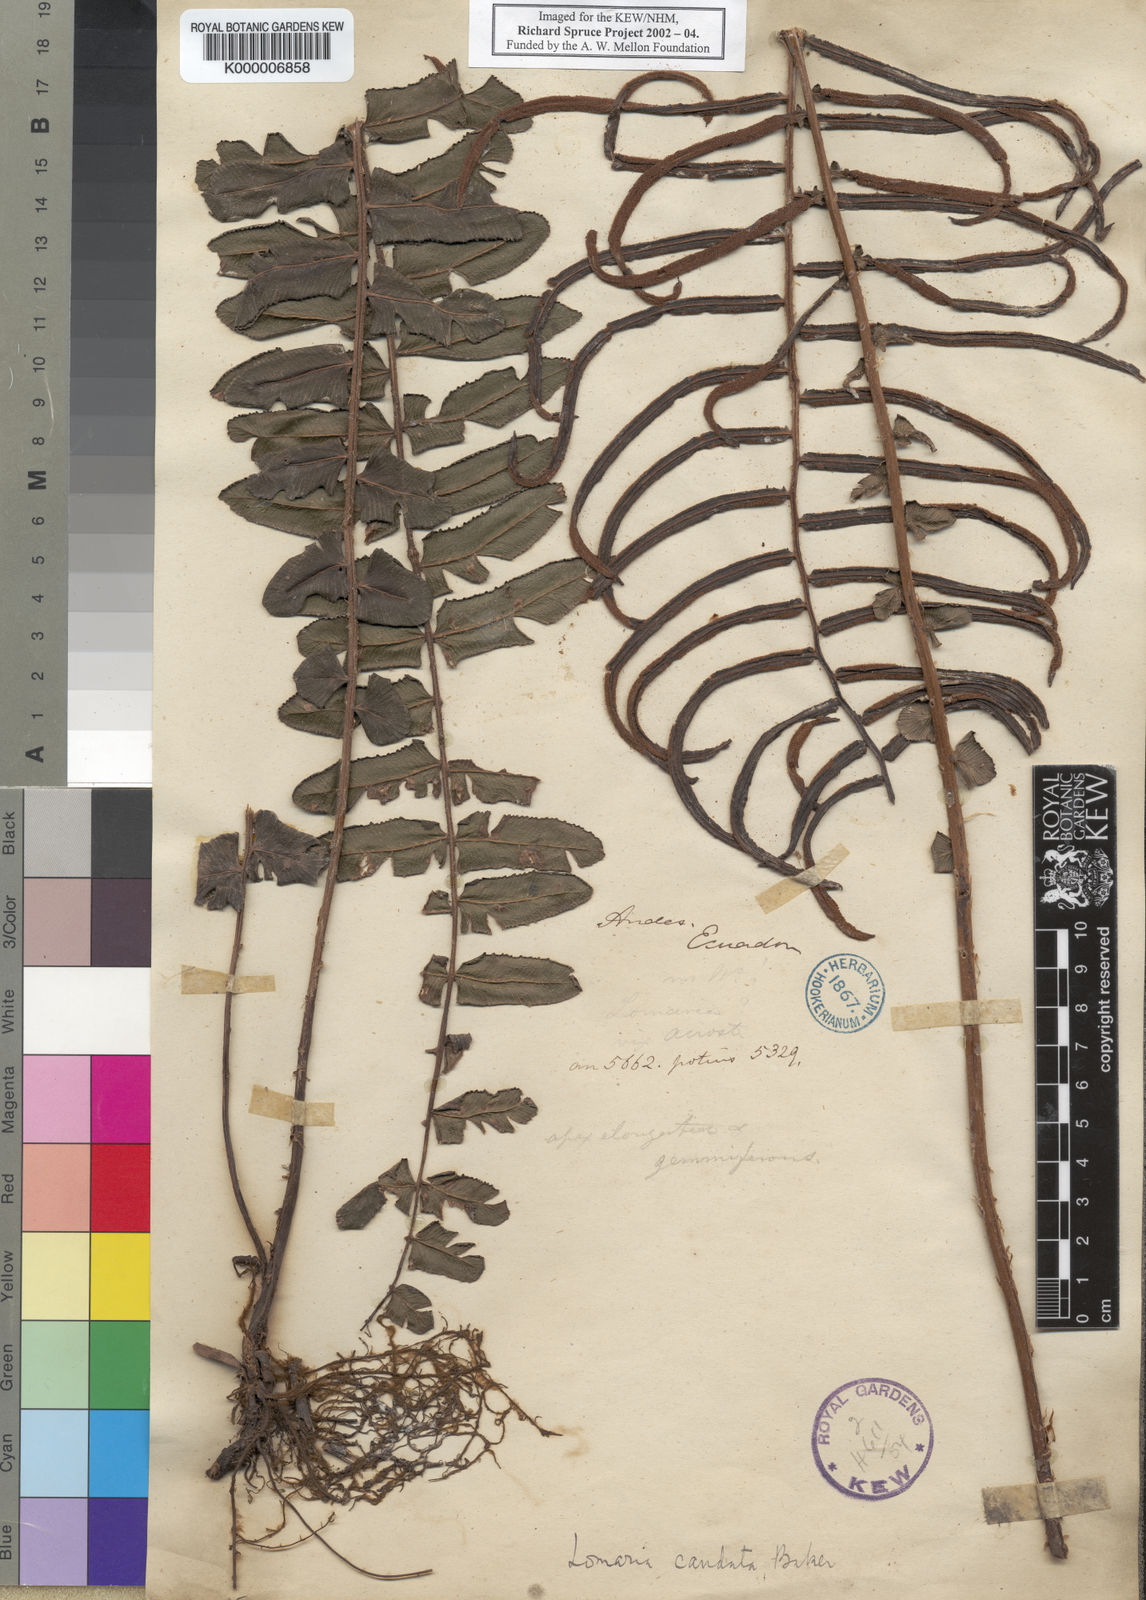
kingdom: Plantae
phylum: Tracheophyta
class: Polypodiopsida
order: Polypodiales
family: Blechnaceae
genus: Cranfillia
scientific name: Cranfillia caudata
